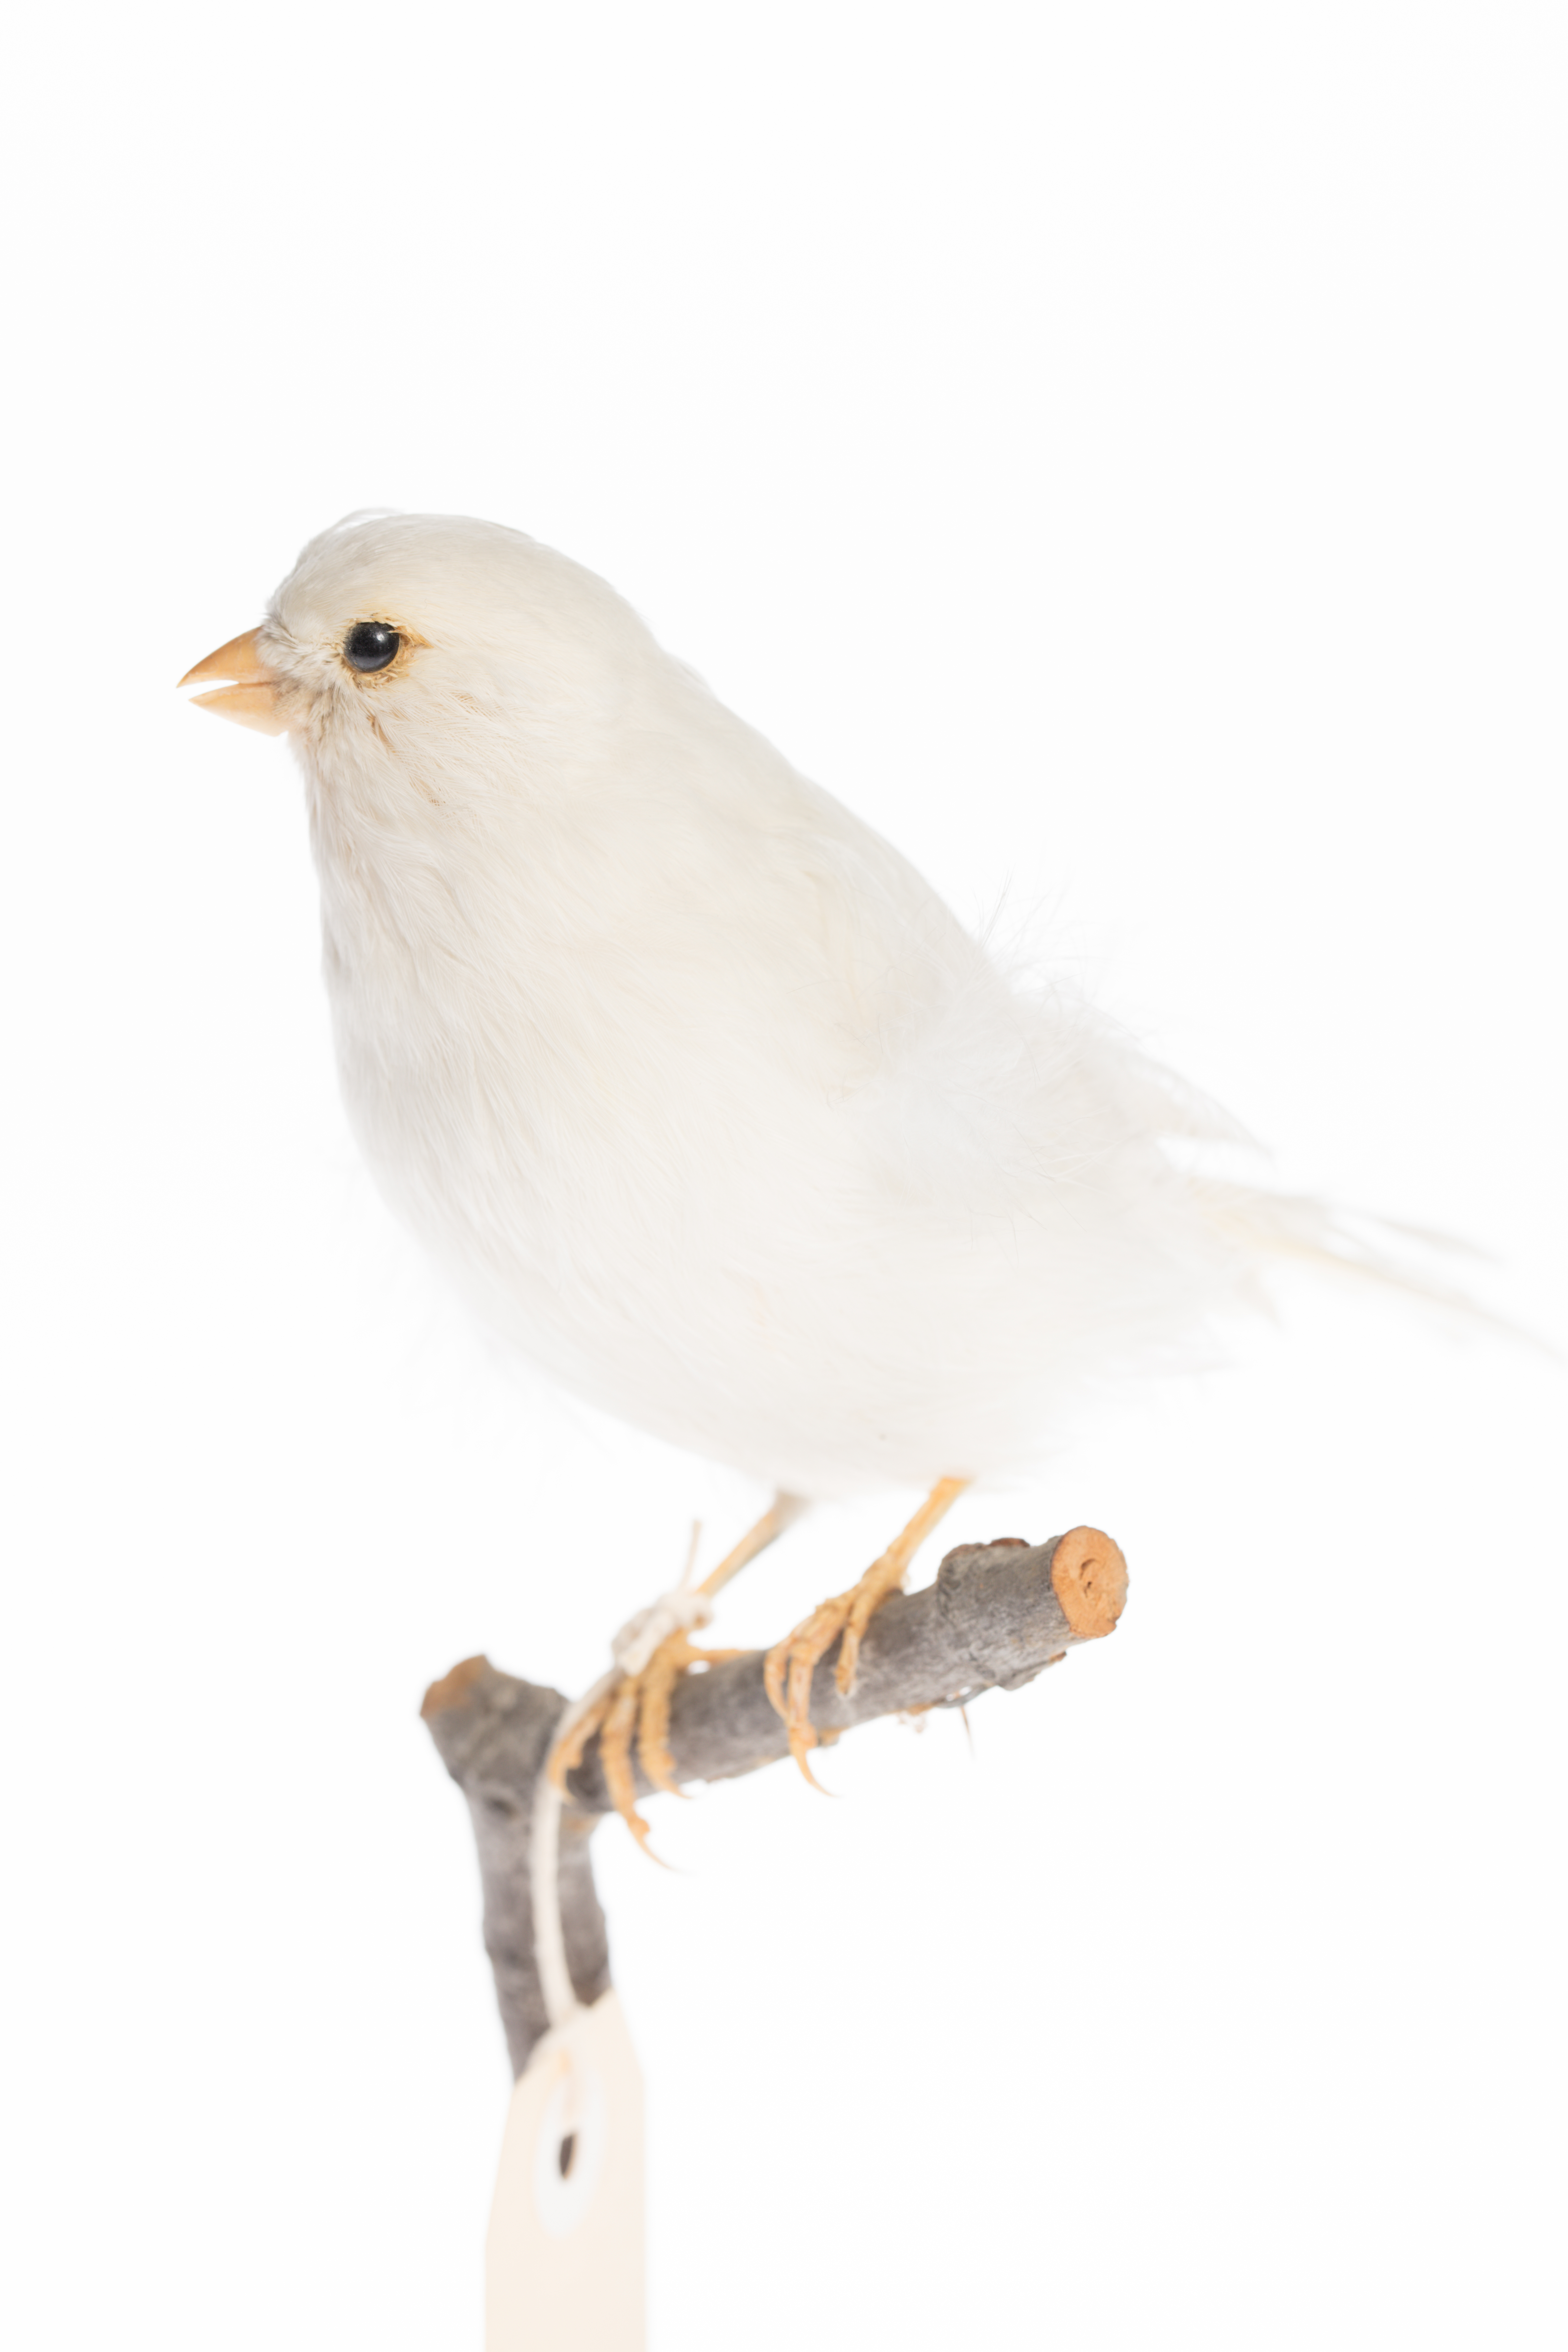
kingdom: Animalia
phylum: Chordata
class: Aves
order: Passeriformes
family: Fringillidae
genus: Serinus
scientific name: Serinus canaria
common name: Atlantic canary
